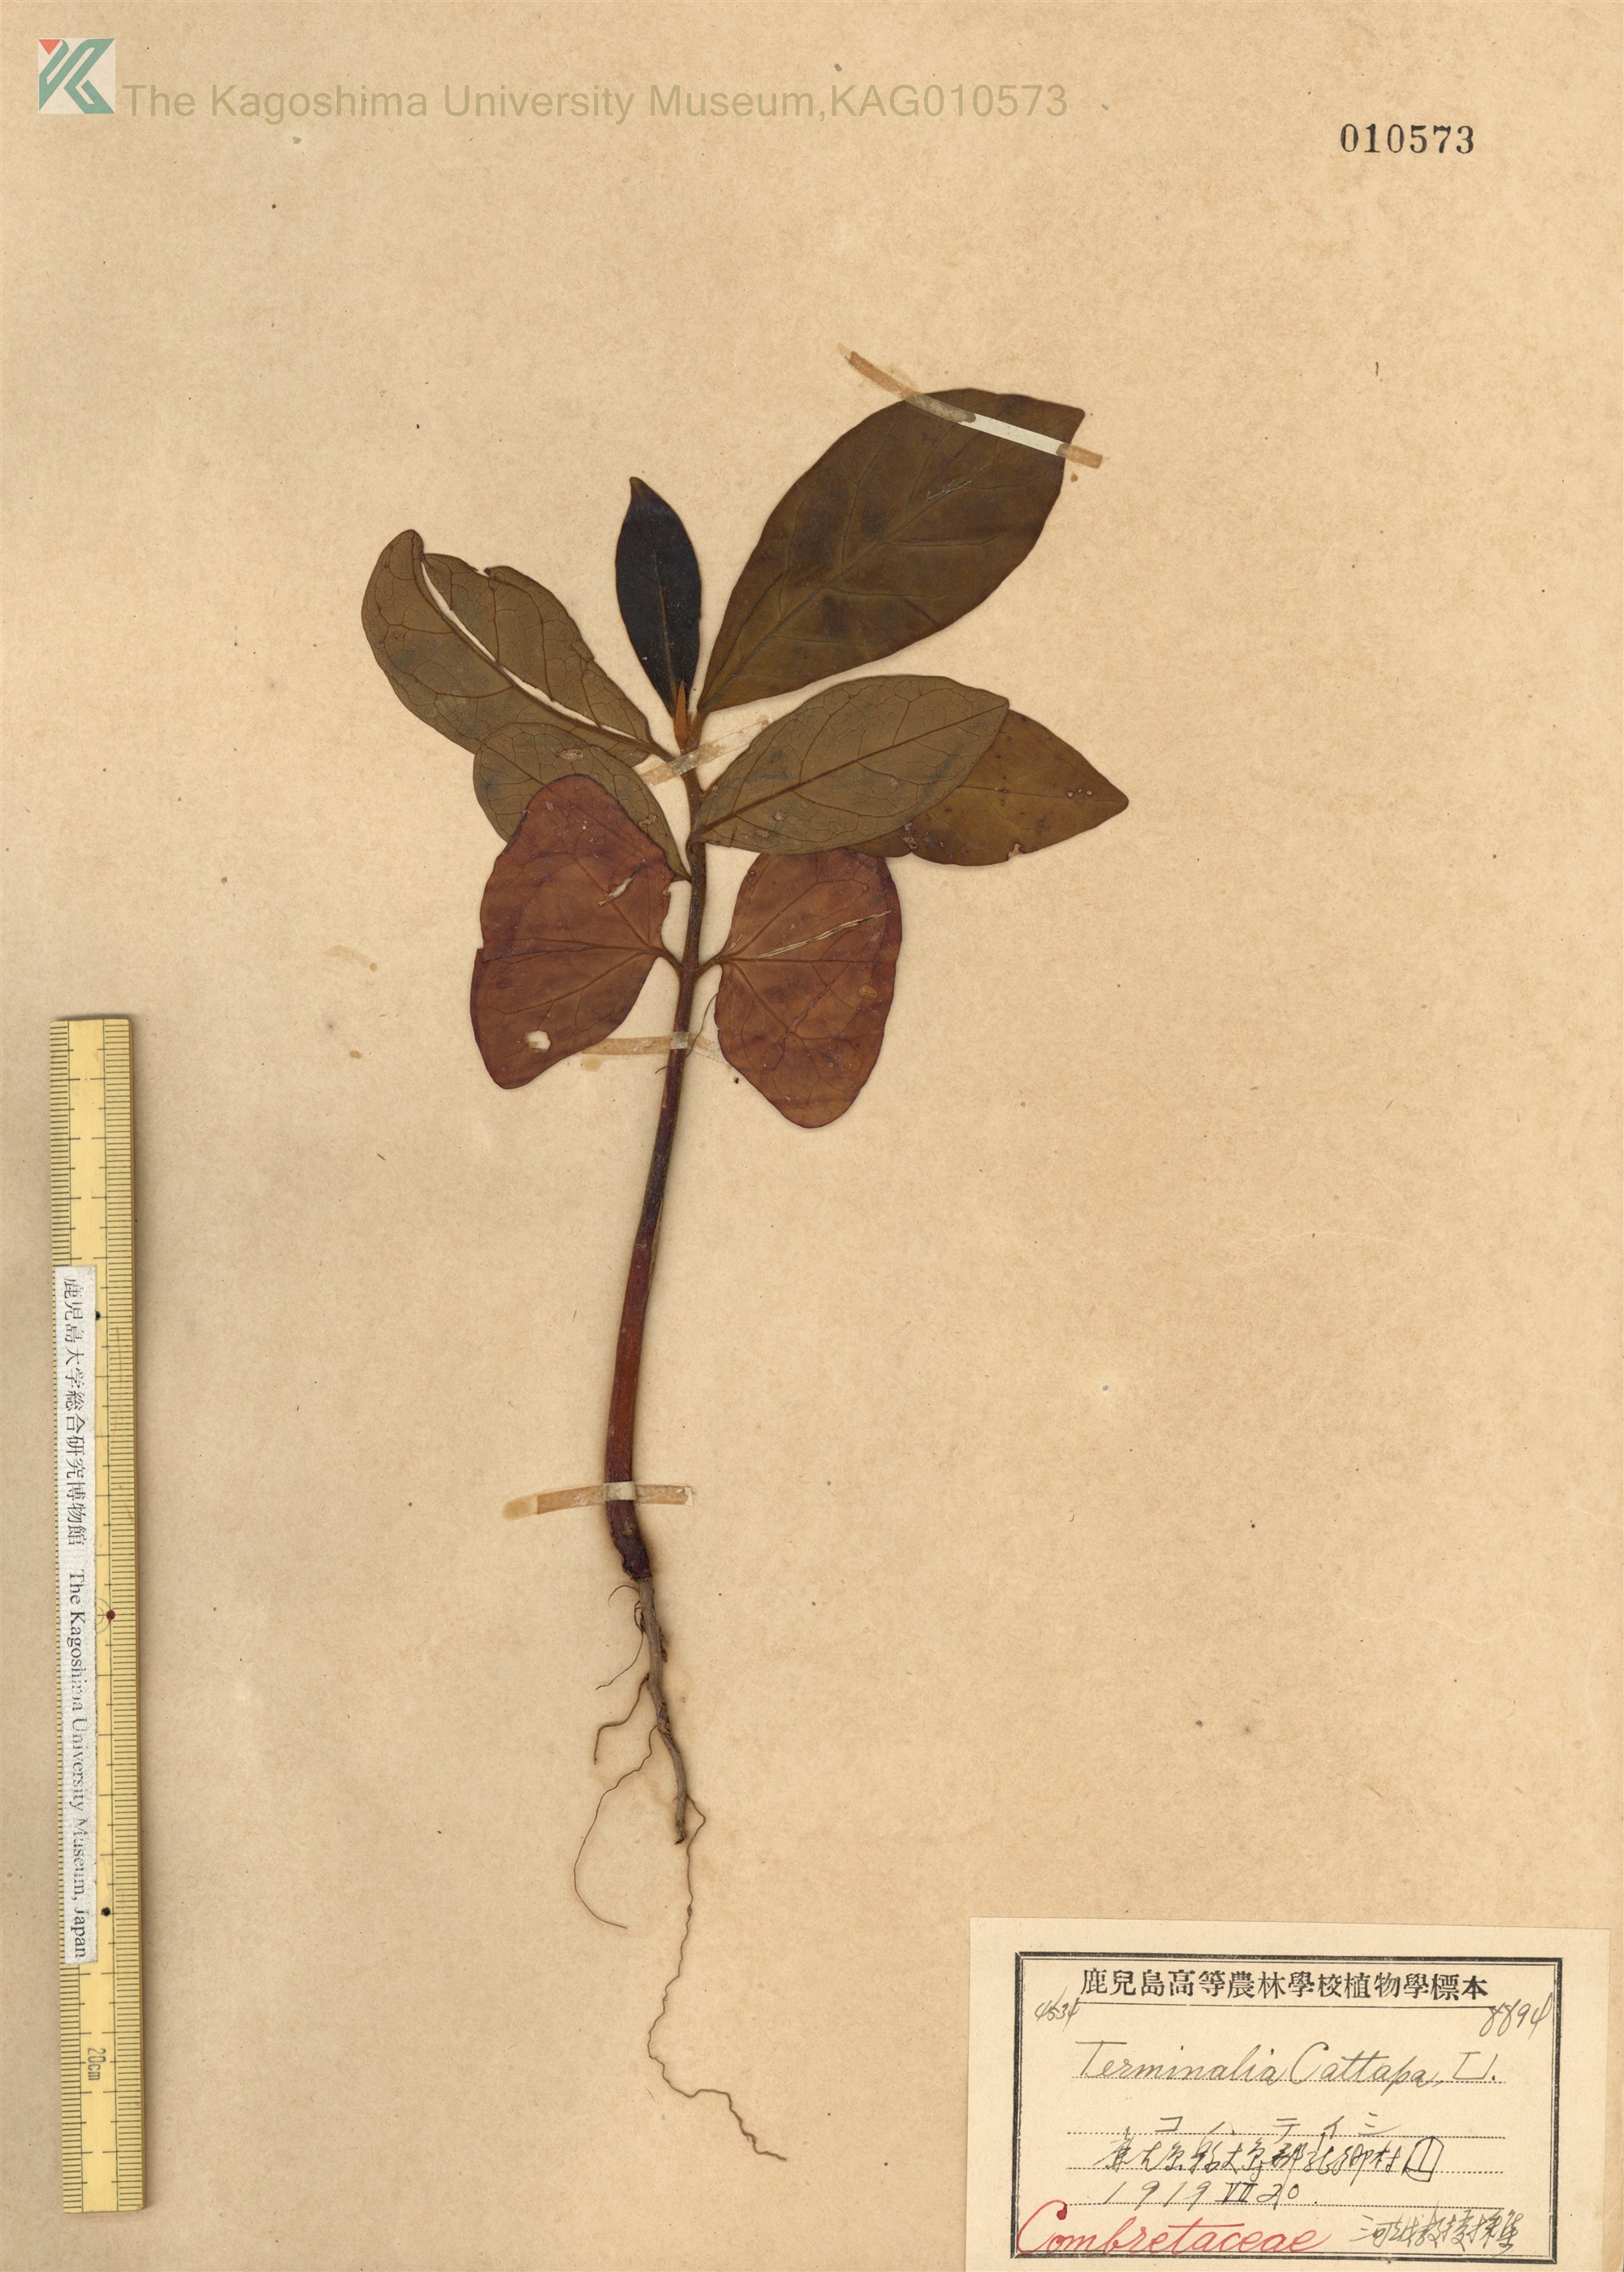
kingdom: Plantae
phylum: Tracheophyta
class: Magnoliopsida
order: Myrtales
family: Combretaceae
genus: Terminalia
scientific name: Terminalia catappa
